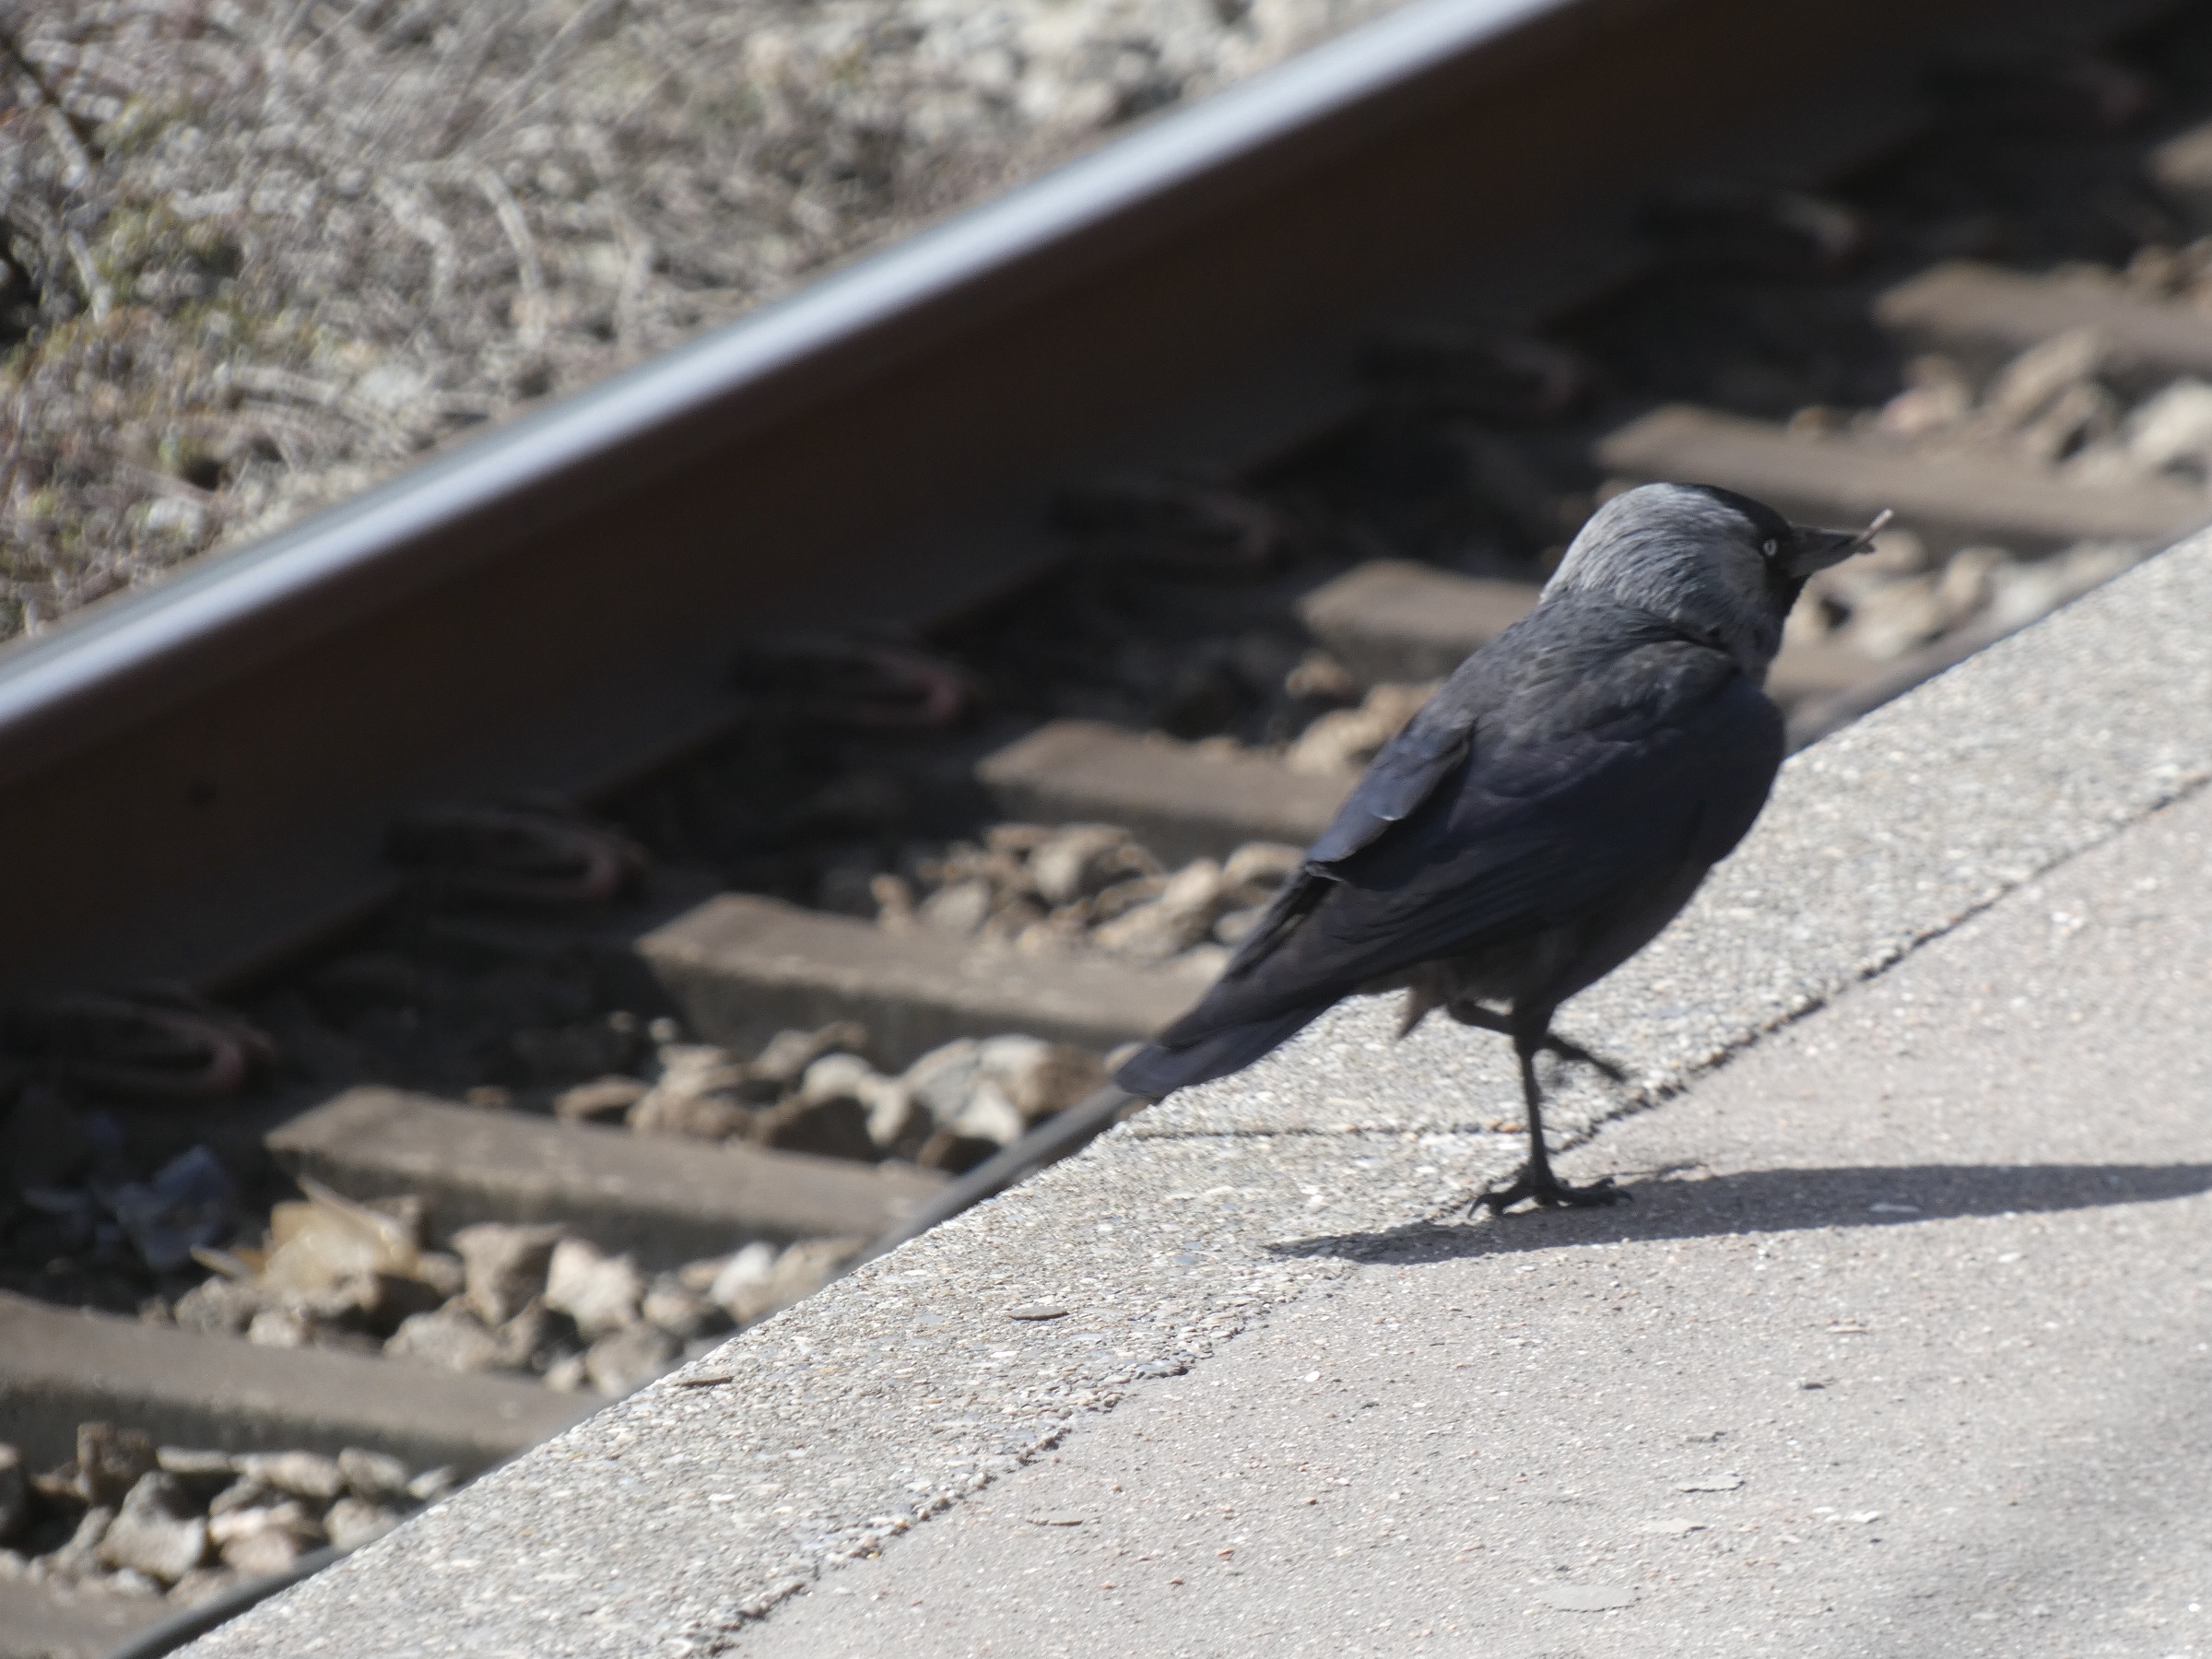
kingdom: Animalia
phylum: Chordata
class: Aves
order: Passeriformes
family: Corvidae
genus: Coloeus
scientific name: Coloeus monedula
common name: Allike
